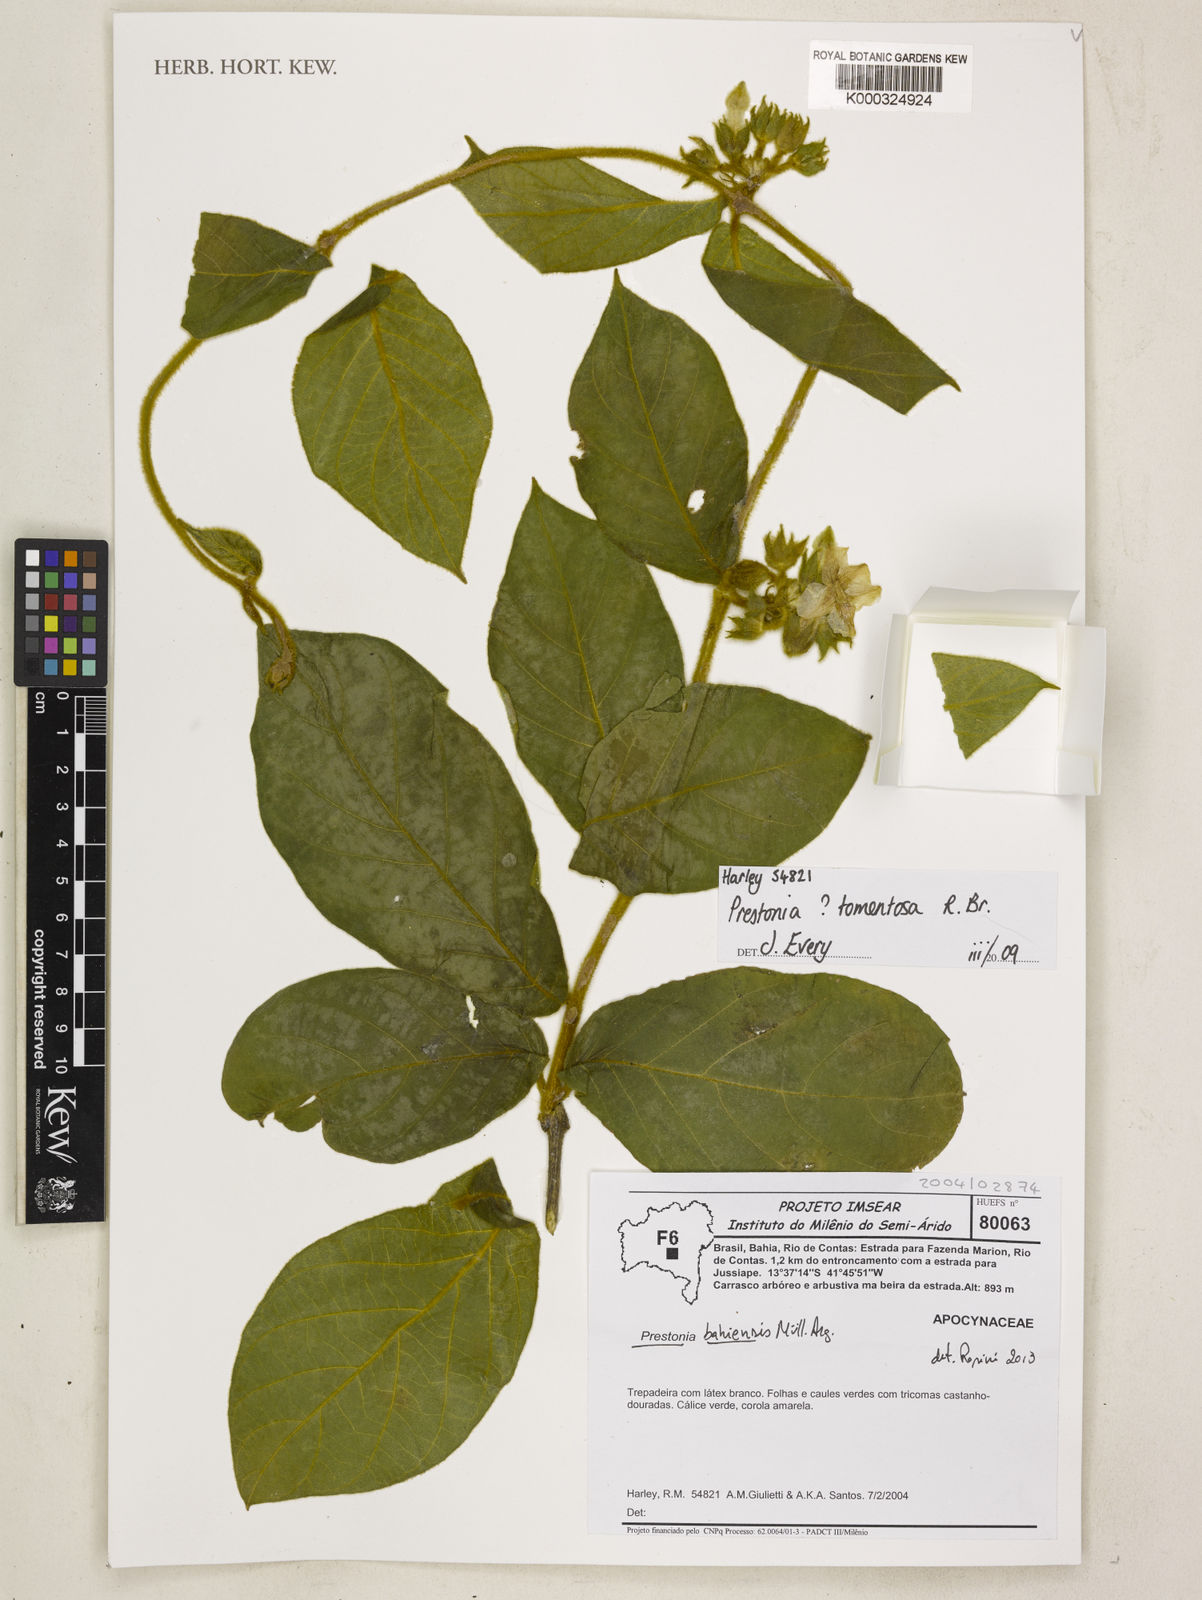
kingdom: Plantae
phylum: Tracheophyta
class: Magnoliopsida
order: Gentianales
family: Apocynaceae
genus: Prestonia
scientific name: Prestonia tomentosa
